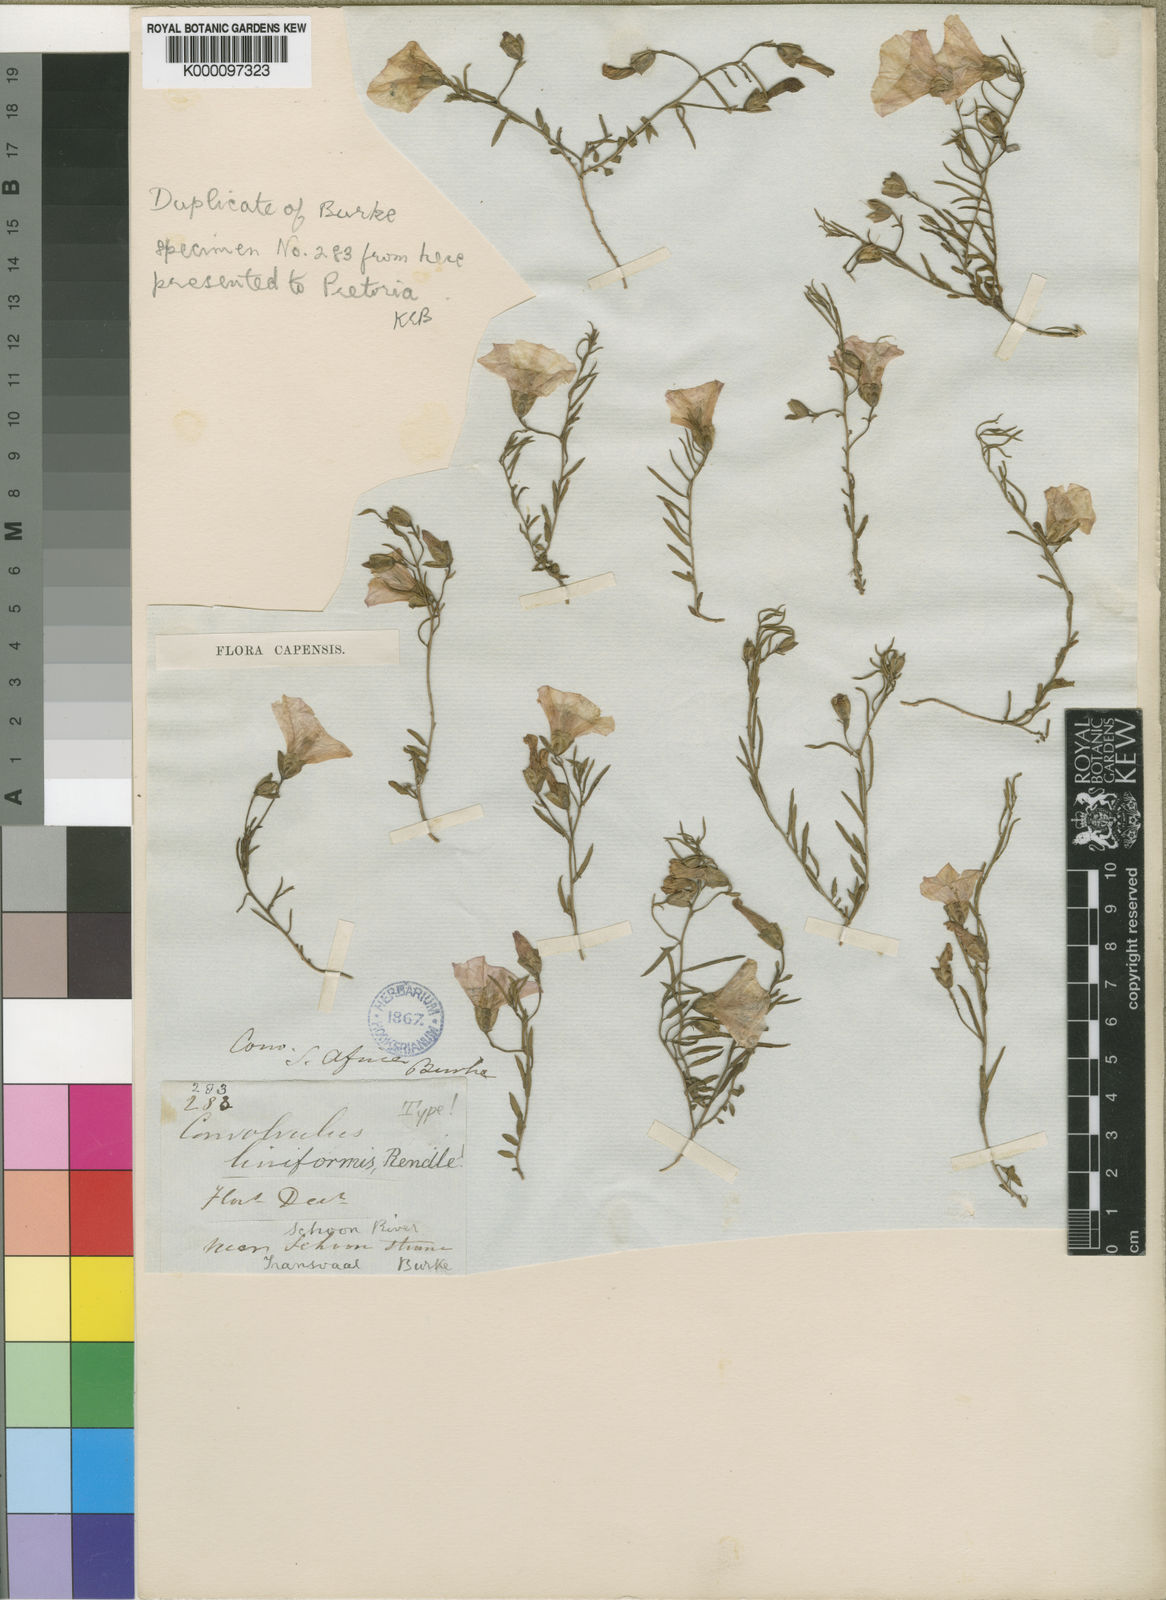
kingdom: Plantae
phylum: Tracheophyta
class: Magnoliopsida
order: Solanales
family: Convolvulaceae
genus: Convolvulus
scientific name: Convolvulus dregeanus
